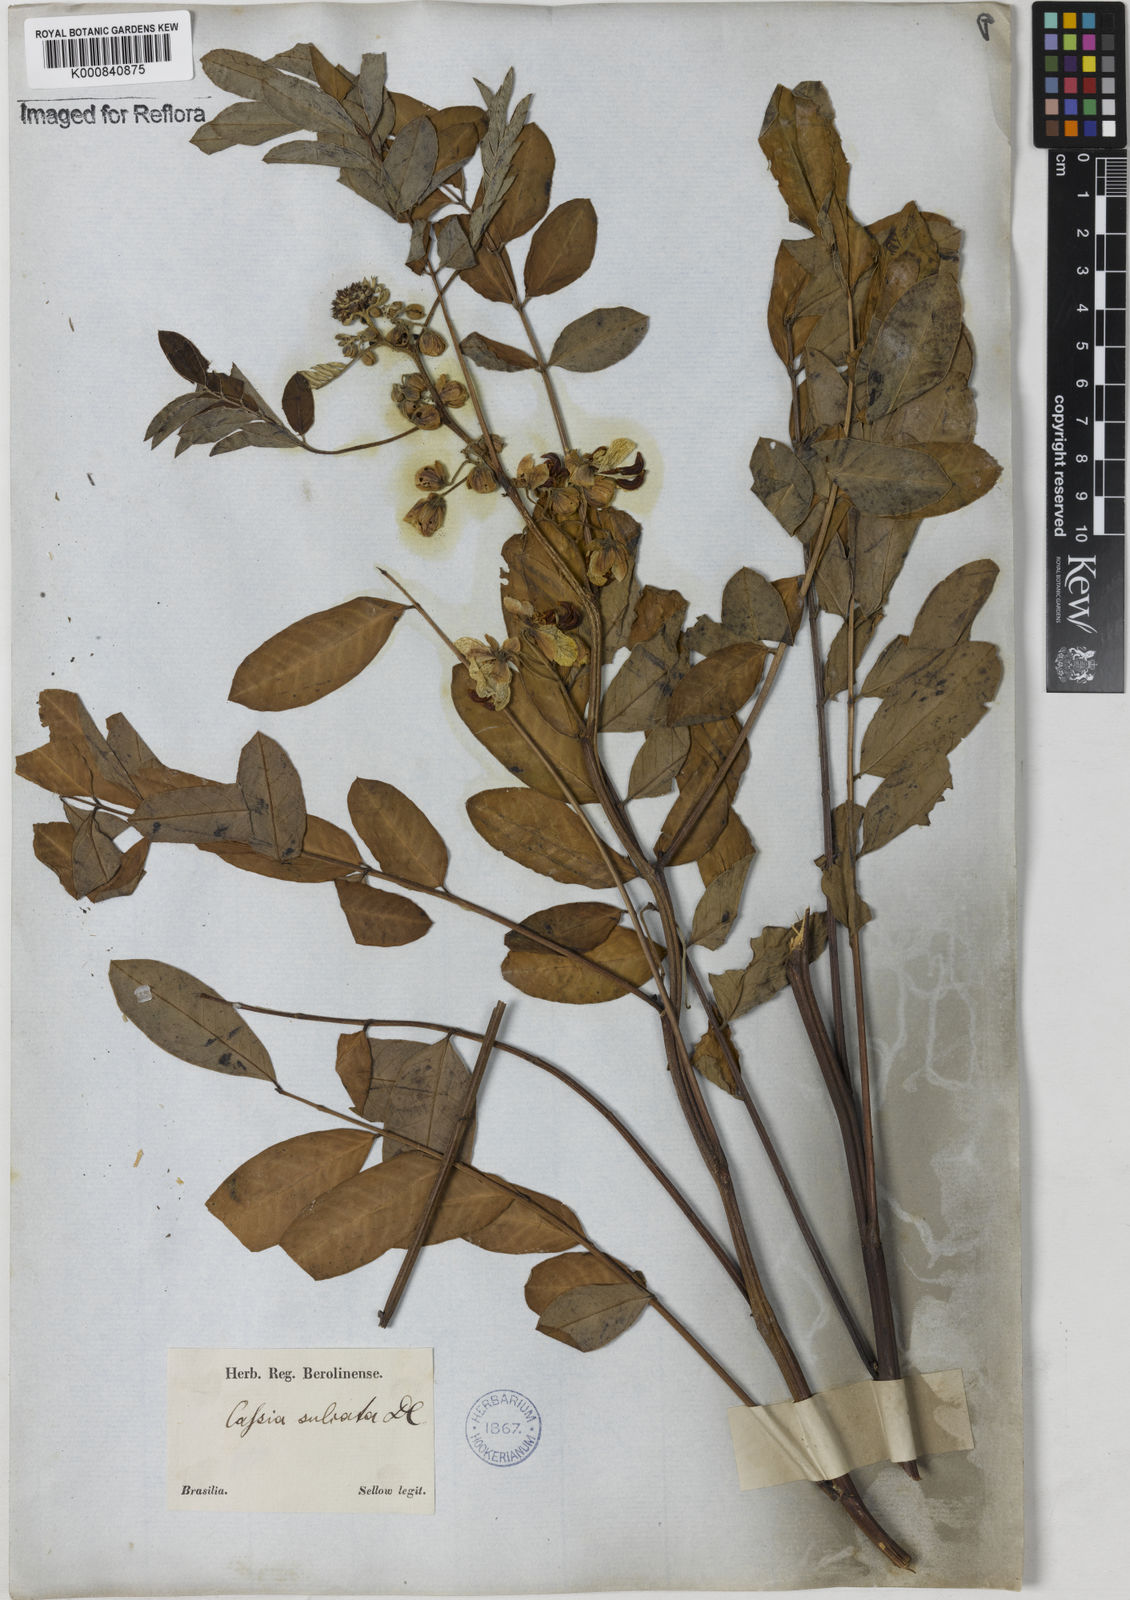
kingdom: Plantae
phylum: Tracheophyta
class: Magnoliopsida
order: Fabales
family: Fabaceae
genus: Senna
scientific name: Senna cernua
